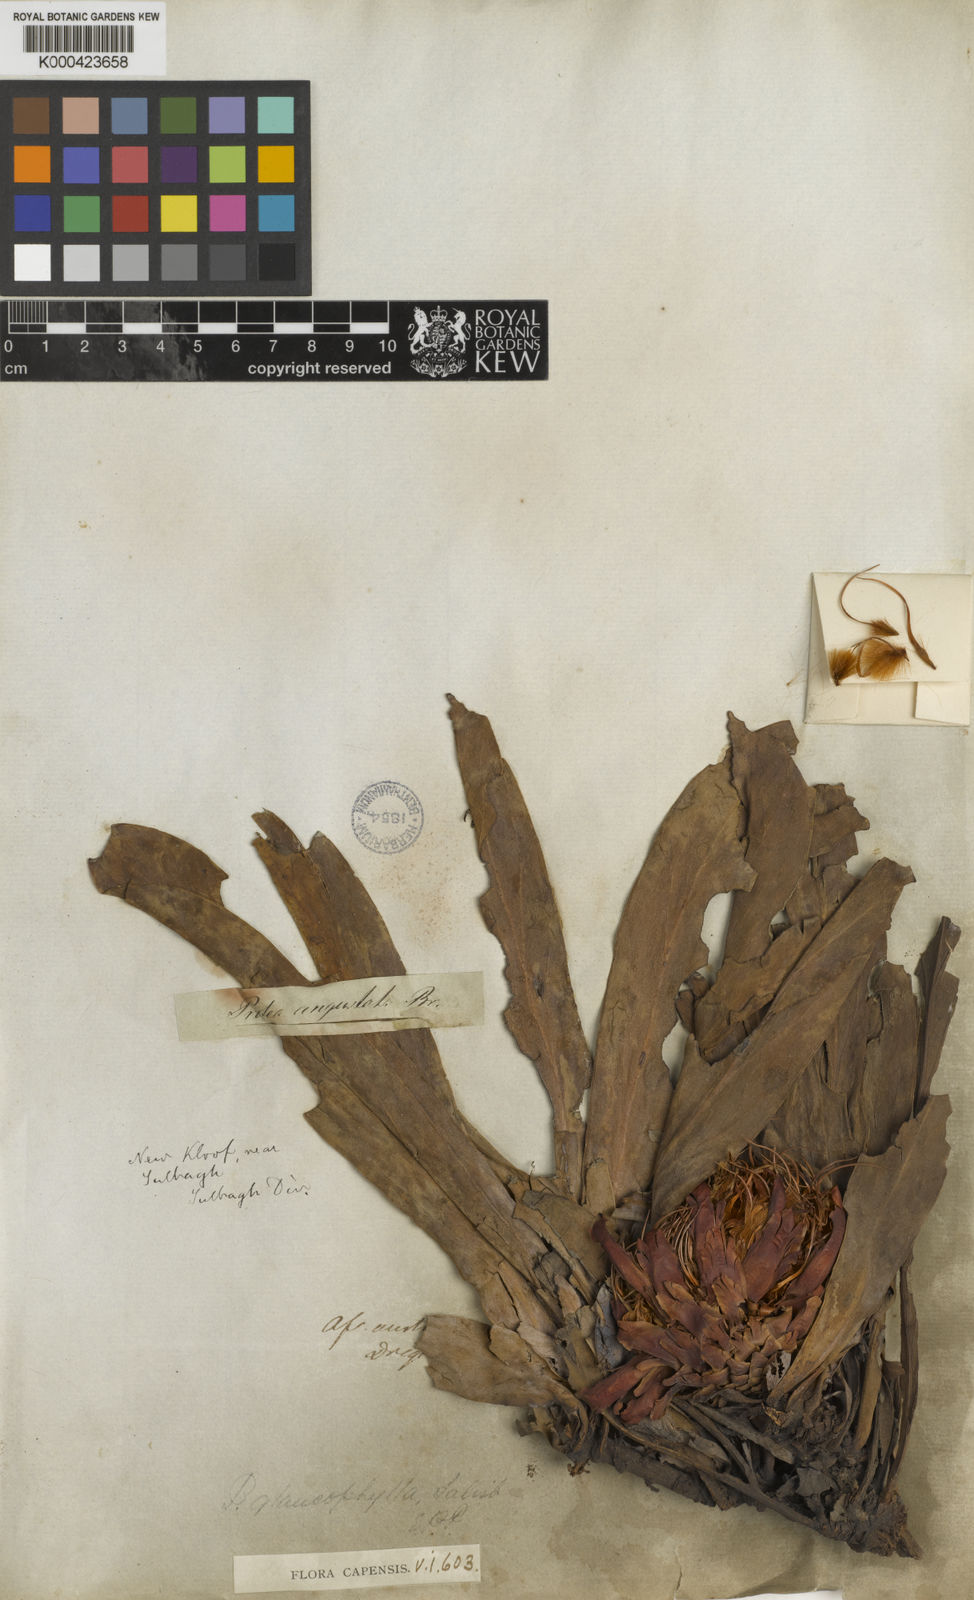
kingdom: Plantae
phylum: Tracheophyta
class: Magnoliopsida
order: Proteales
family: Proteaceae
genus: Protea
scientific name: Protea
